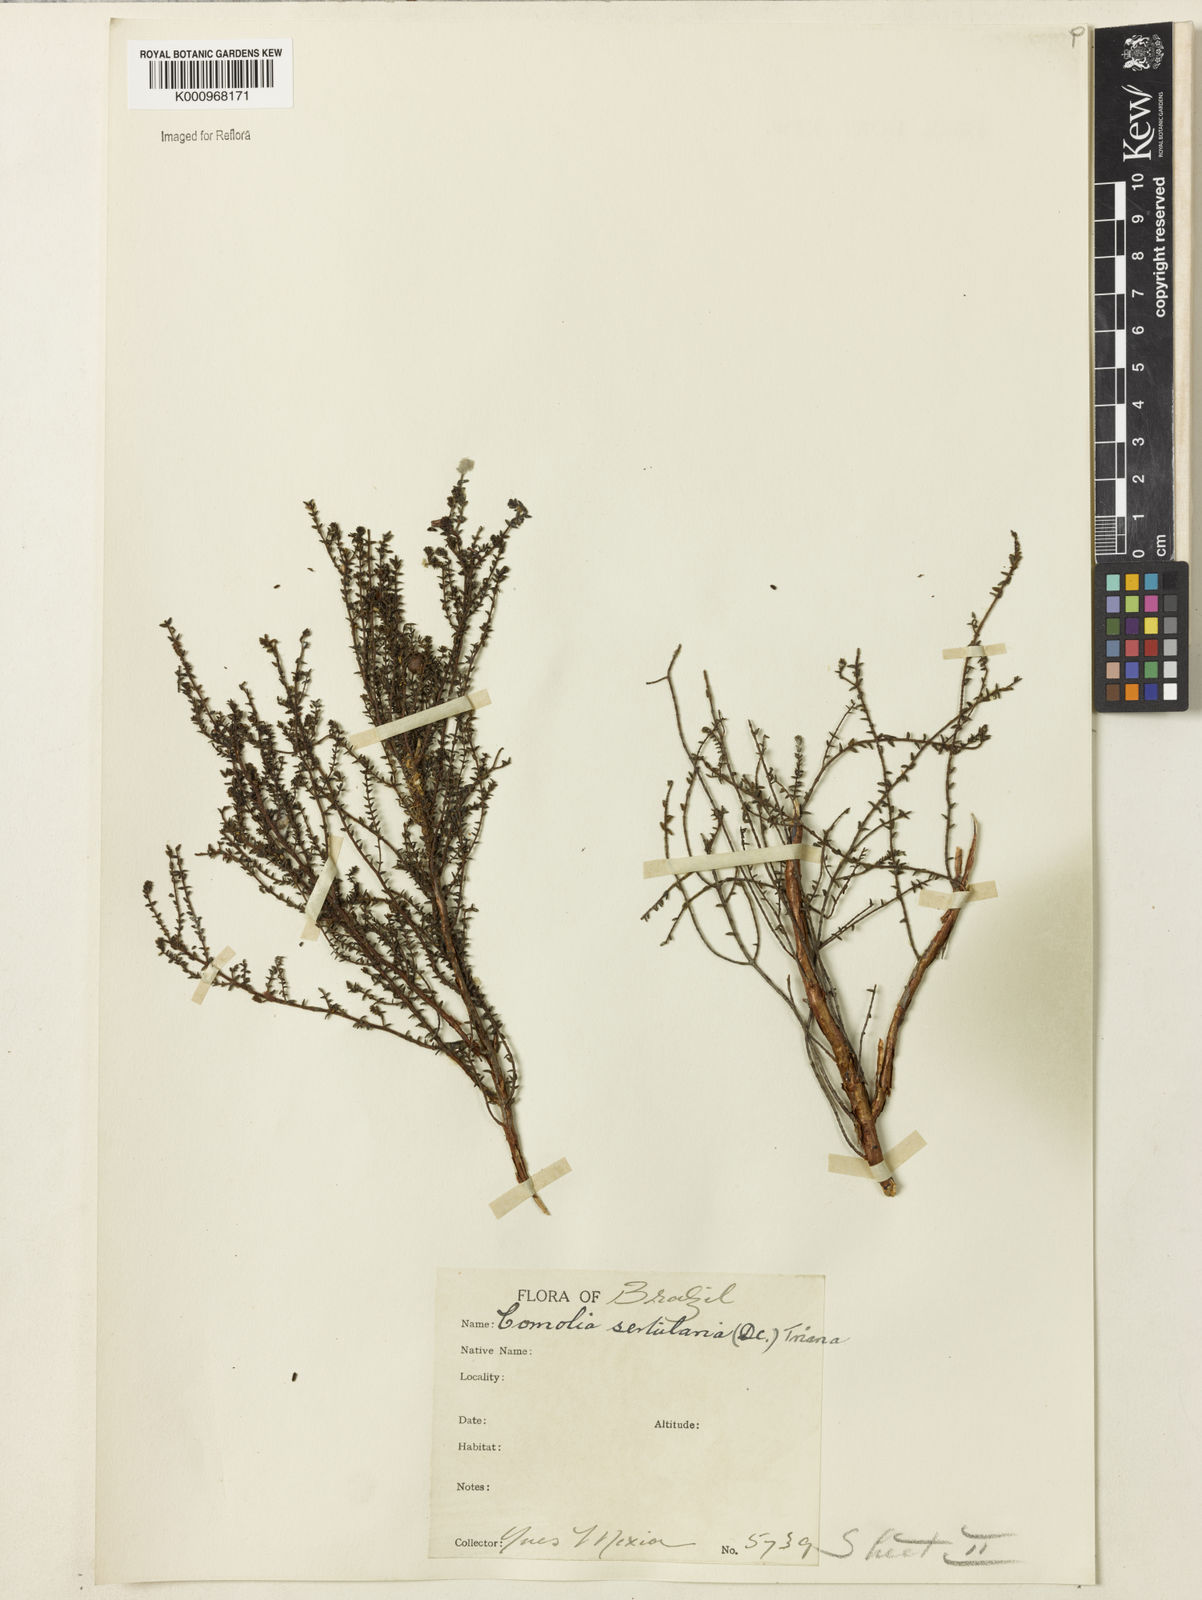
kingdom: Plantae
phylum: Tracheophyta
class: Magnoliopsida
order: Myrtales
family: Melastomataceae
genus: Fritzschia
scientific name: Fritzschia sertularia
